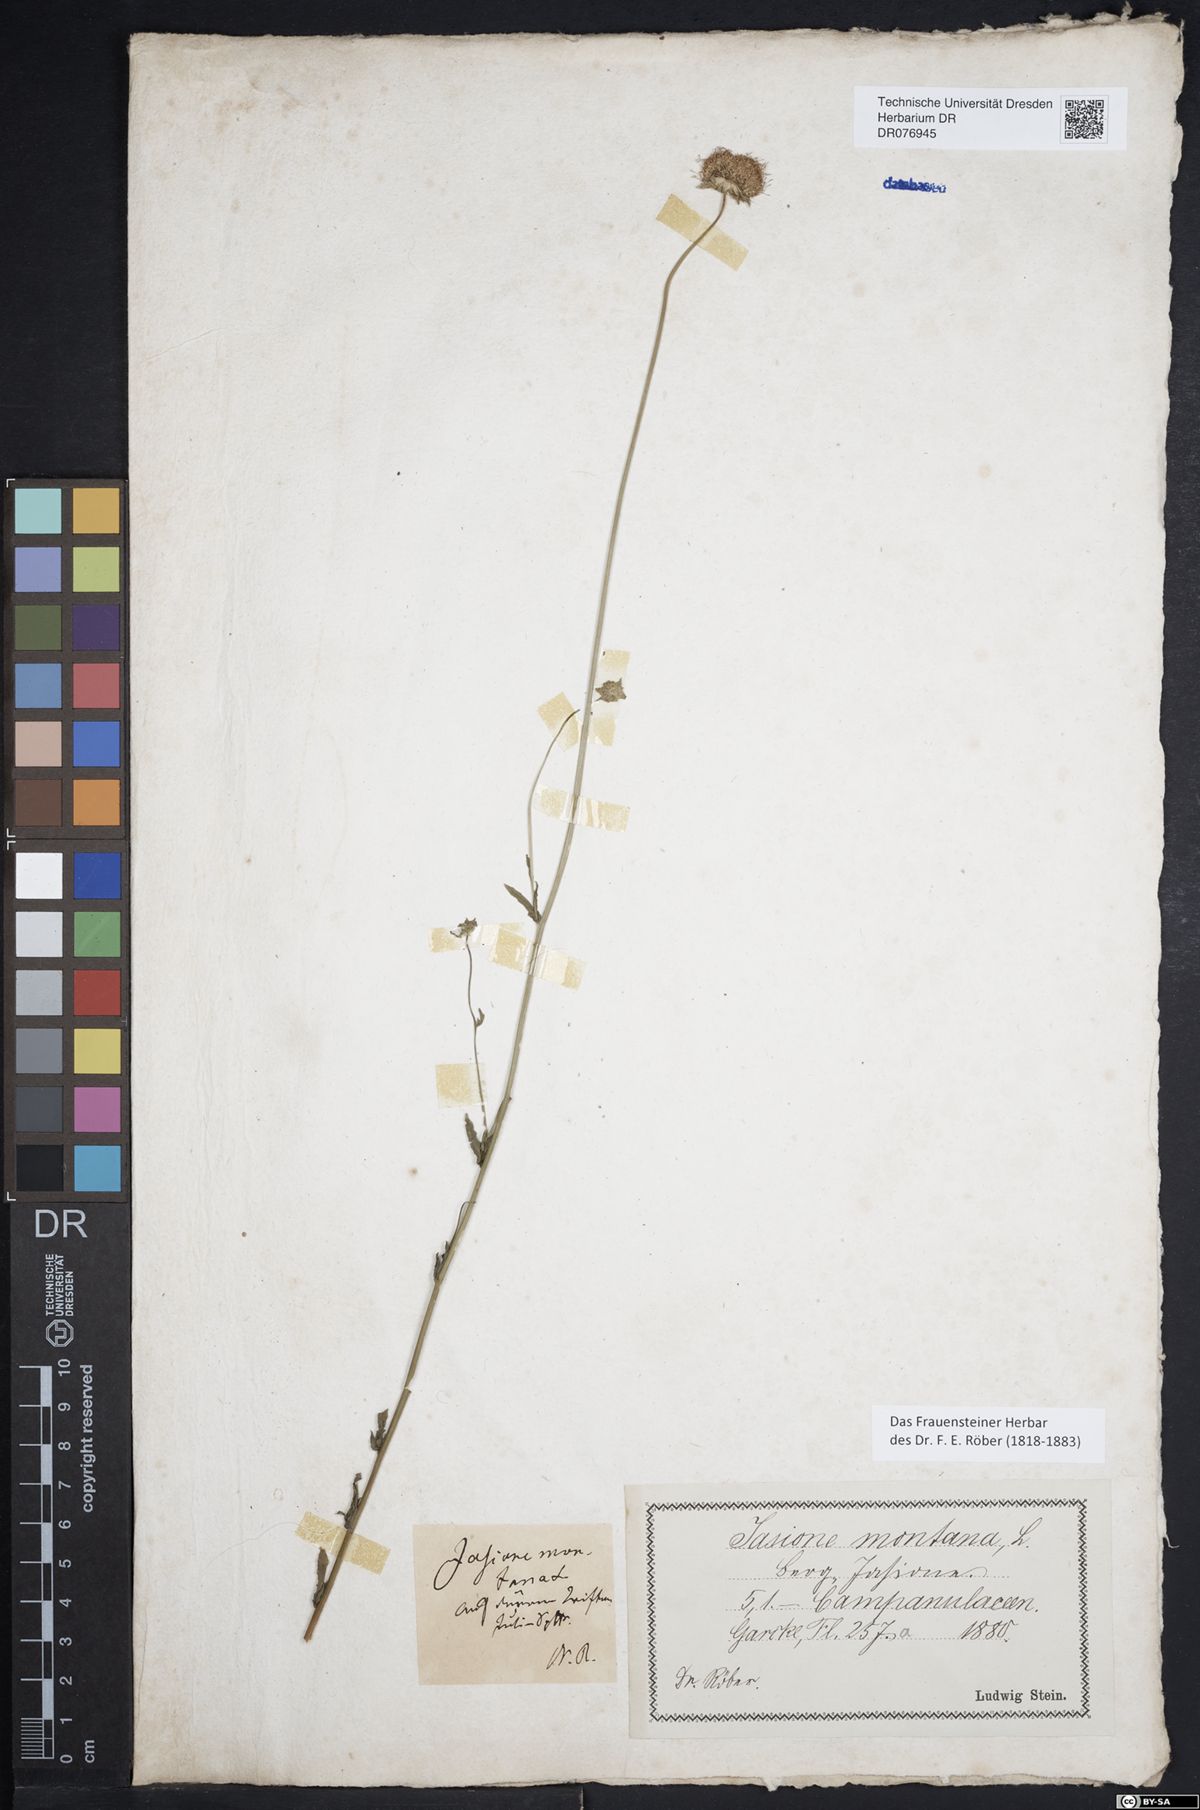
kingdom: Plantae
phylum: Tracheophyta
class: Magnoliopsida
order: Asterales
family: Campanulaceae
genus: Jasione
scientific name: Jasione montana
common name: Sheep's-bit
